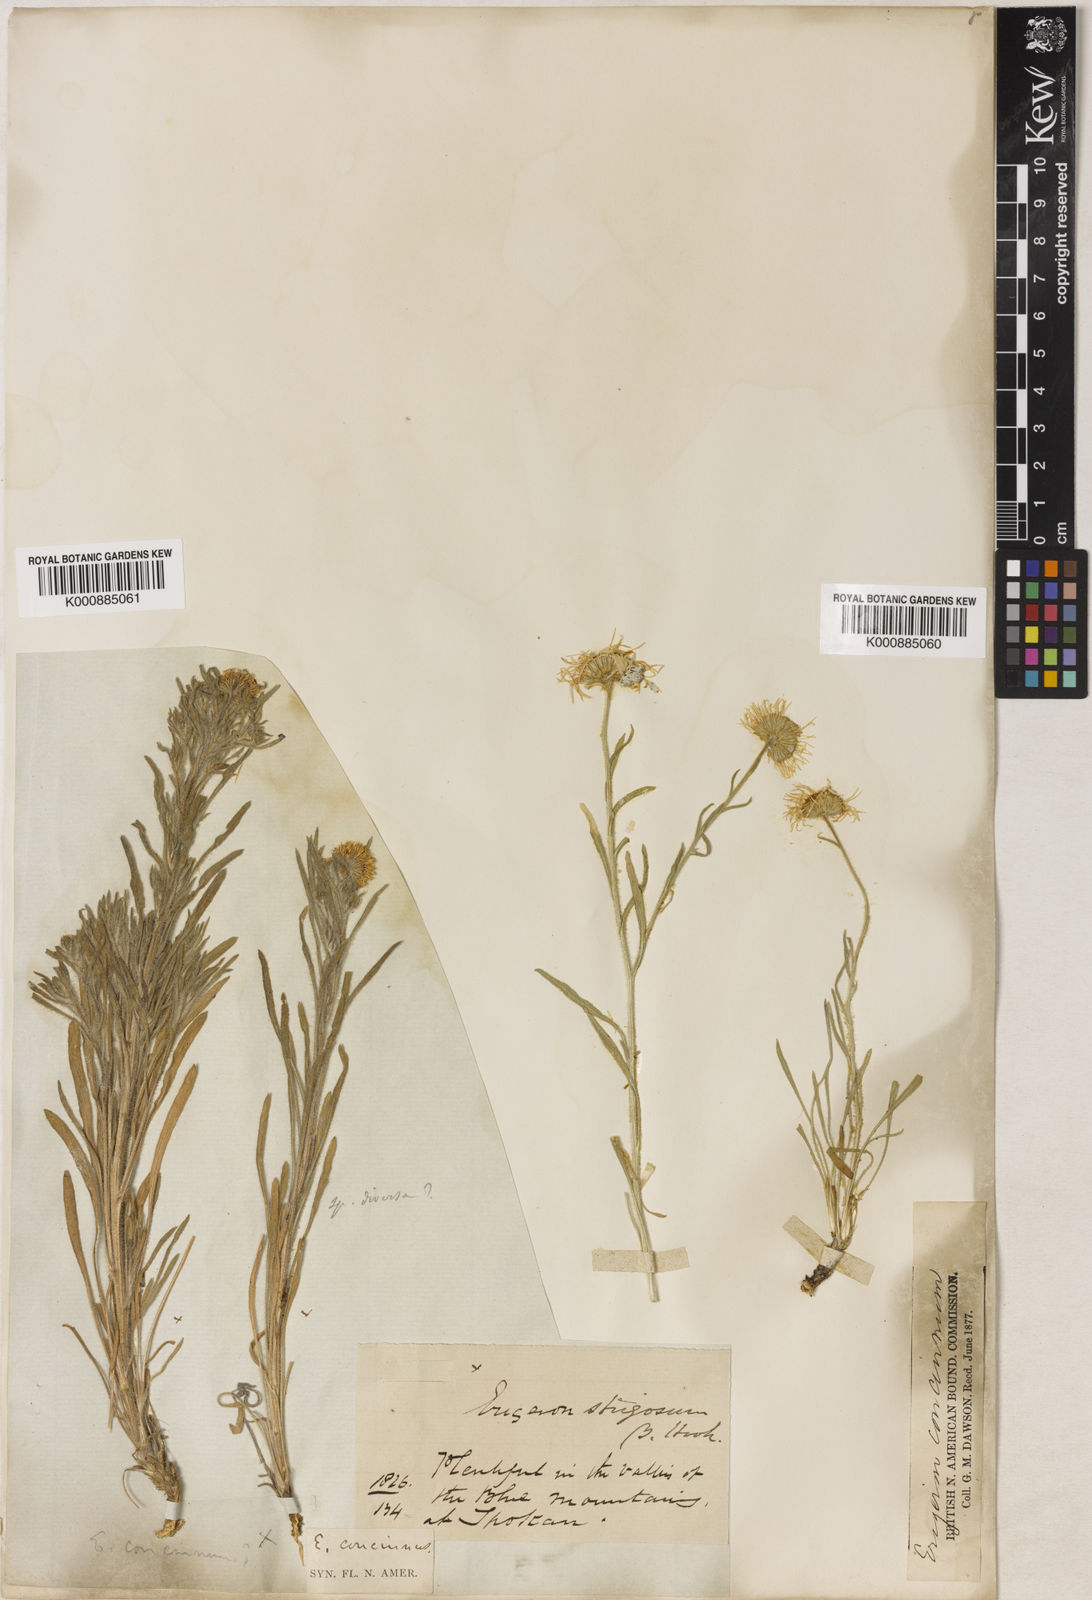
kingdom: Plantae
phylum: Tracheophyta
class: Magnoliopsida
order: Asterales
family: Asteraceae
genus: Erigeron
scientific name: Erigeron concinnus
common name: Navajo fleabane
